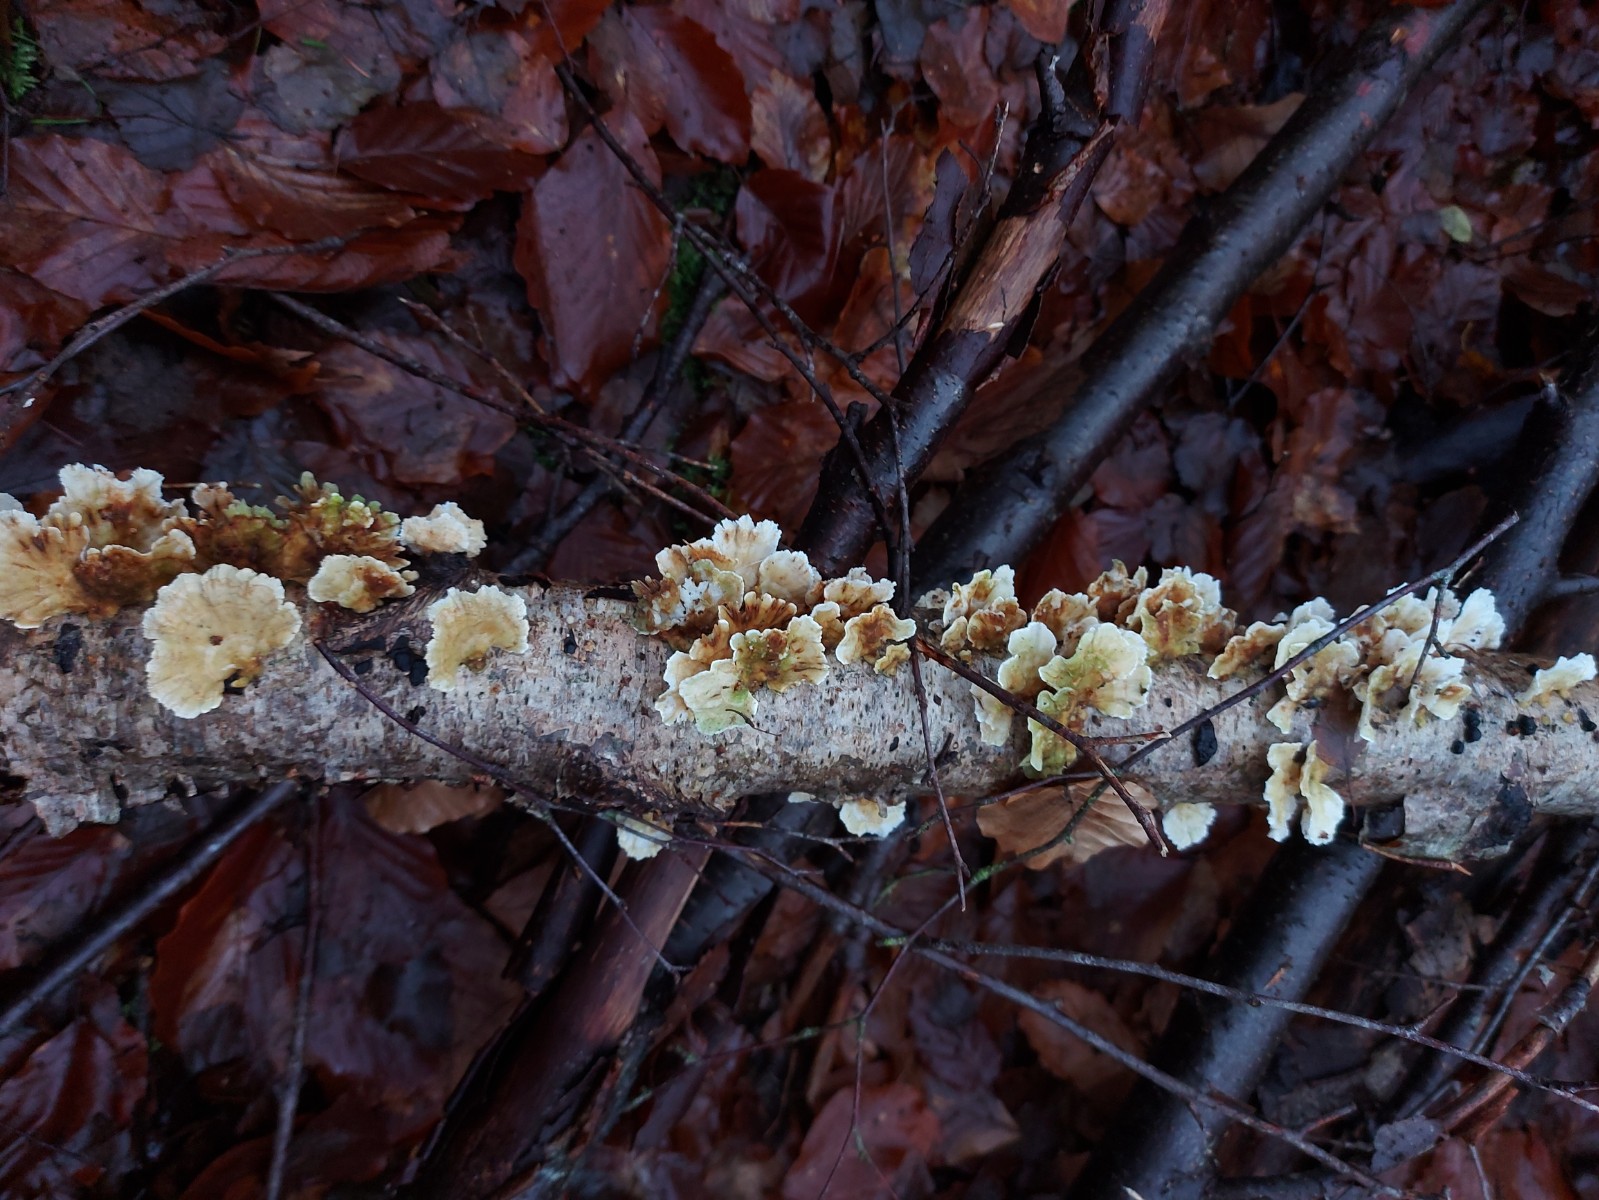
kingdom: Fungi
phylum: Basidiomycota
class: Agaricomycetes
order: Polyporales
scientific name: Polyporales
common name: poresvampordenen
